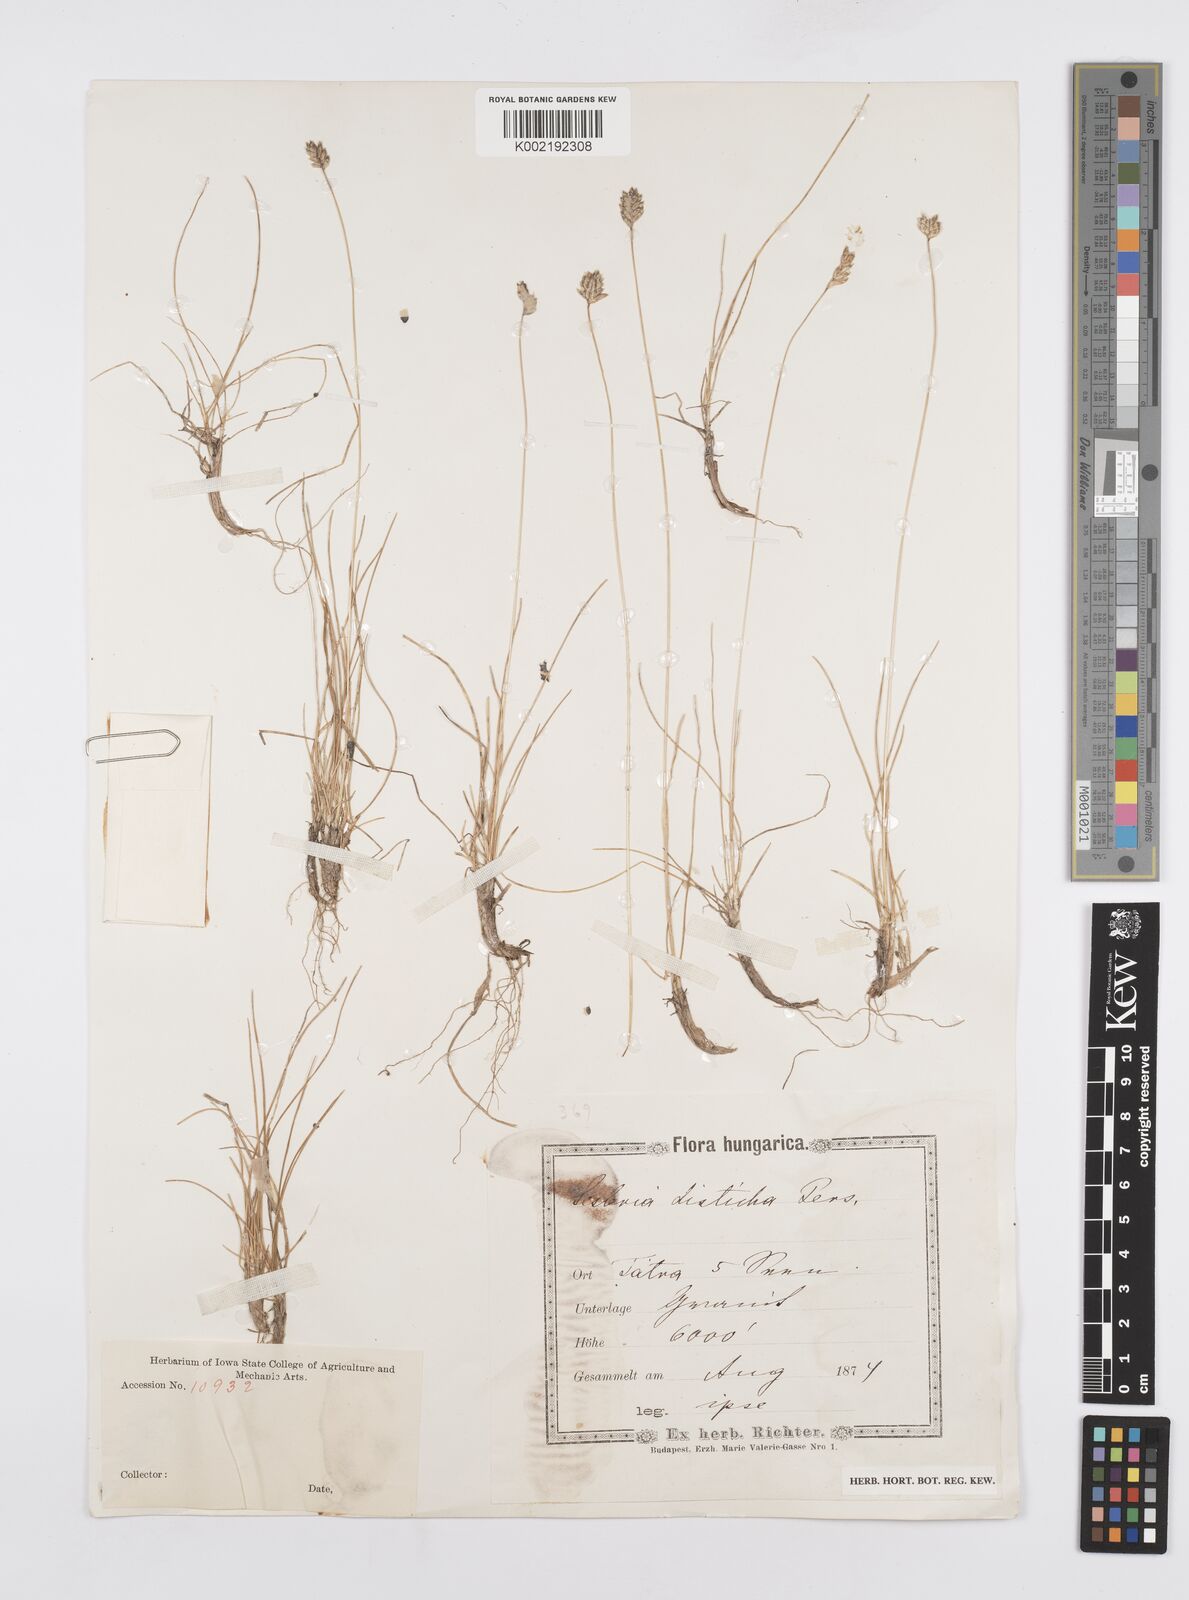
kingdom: Plantae
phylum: Tracheophyta
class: Liliopsida
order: Poales
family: Poaceae
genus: Oreochloa
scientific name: Oreochloa disticha
